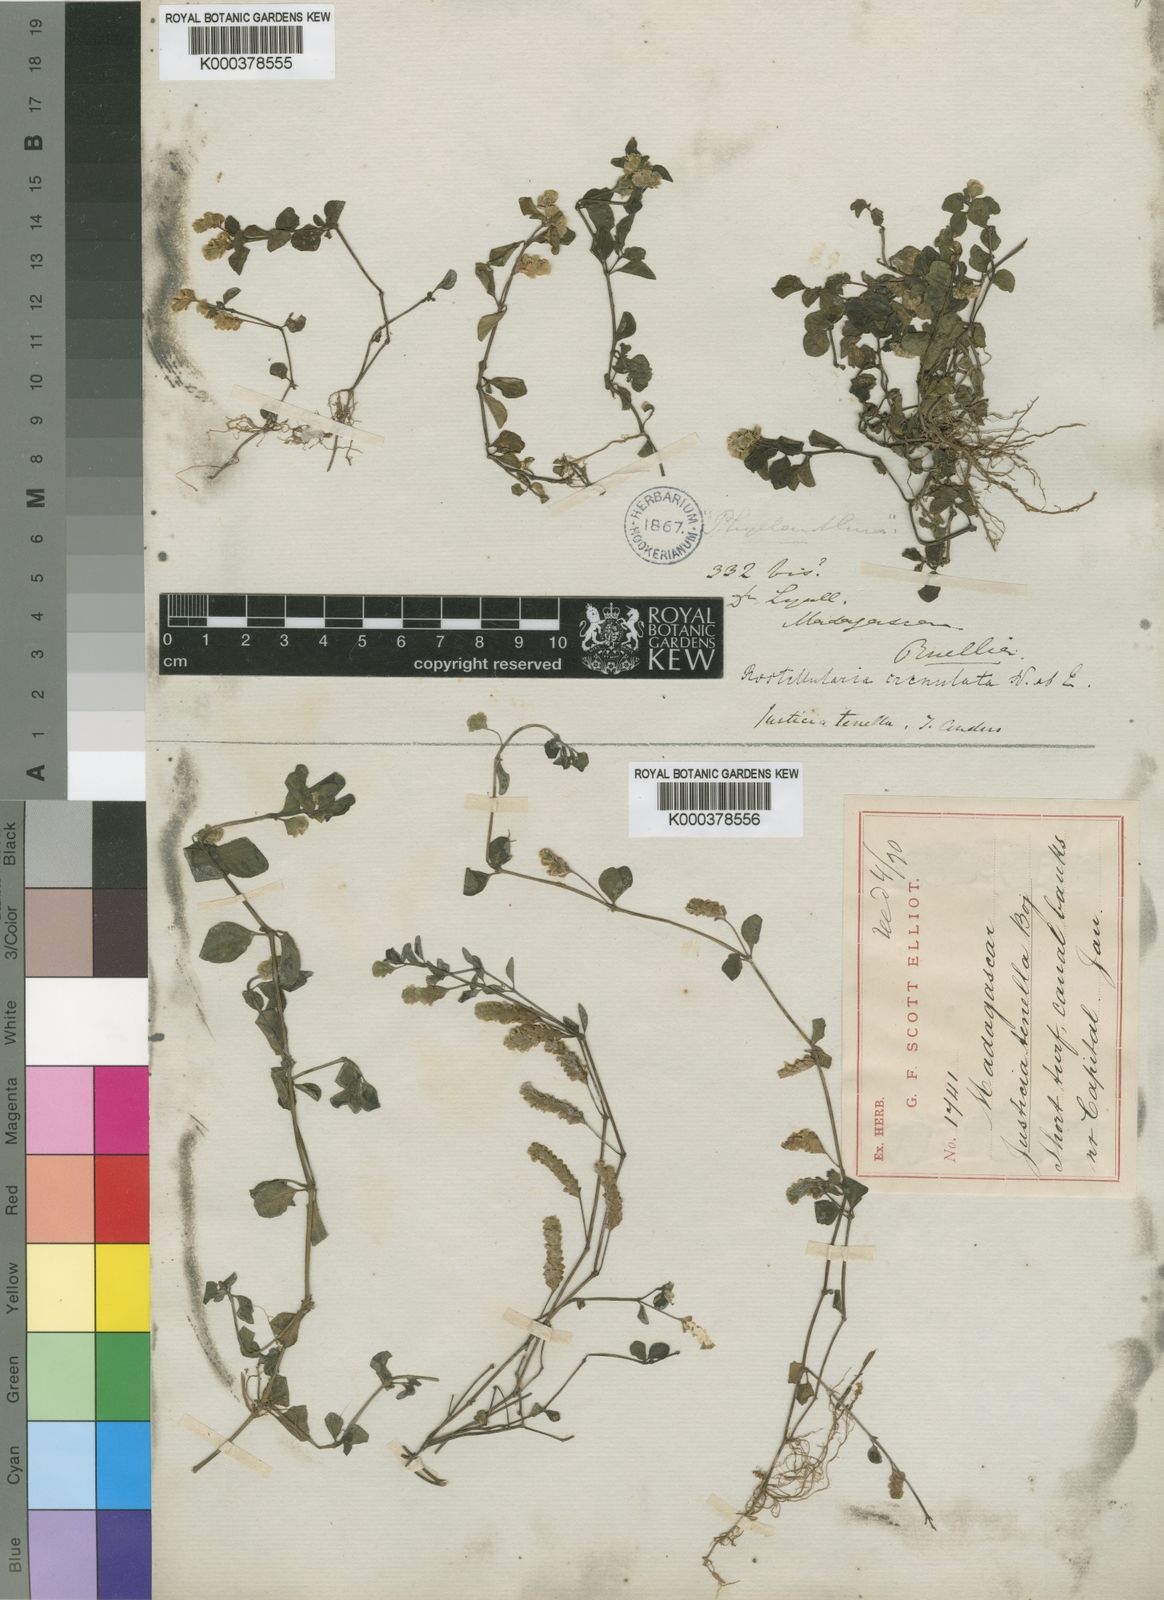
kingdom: Plantae
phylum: Tracheophyta
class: Magnoliopsida
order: Lamiales
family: Acanthaceae
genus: Justicia
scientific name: Justicia
